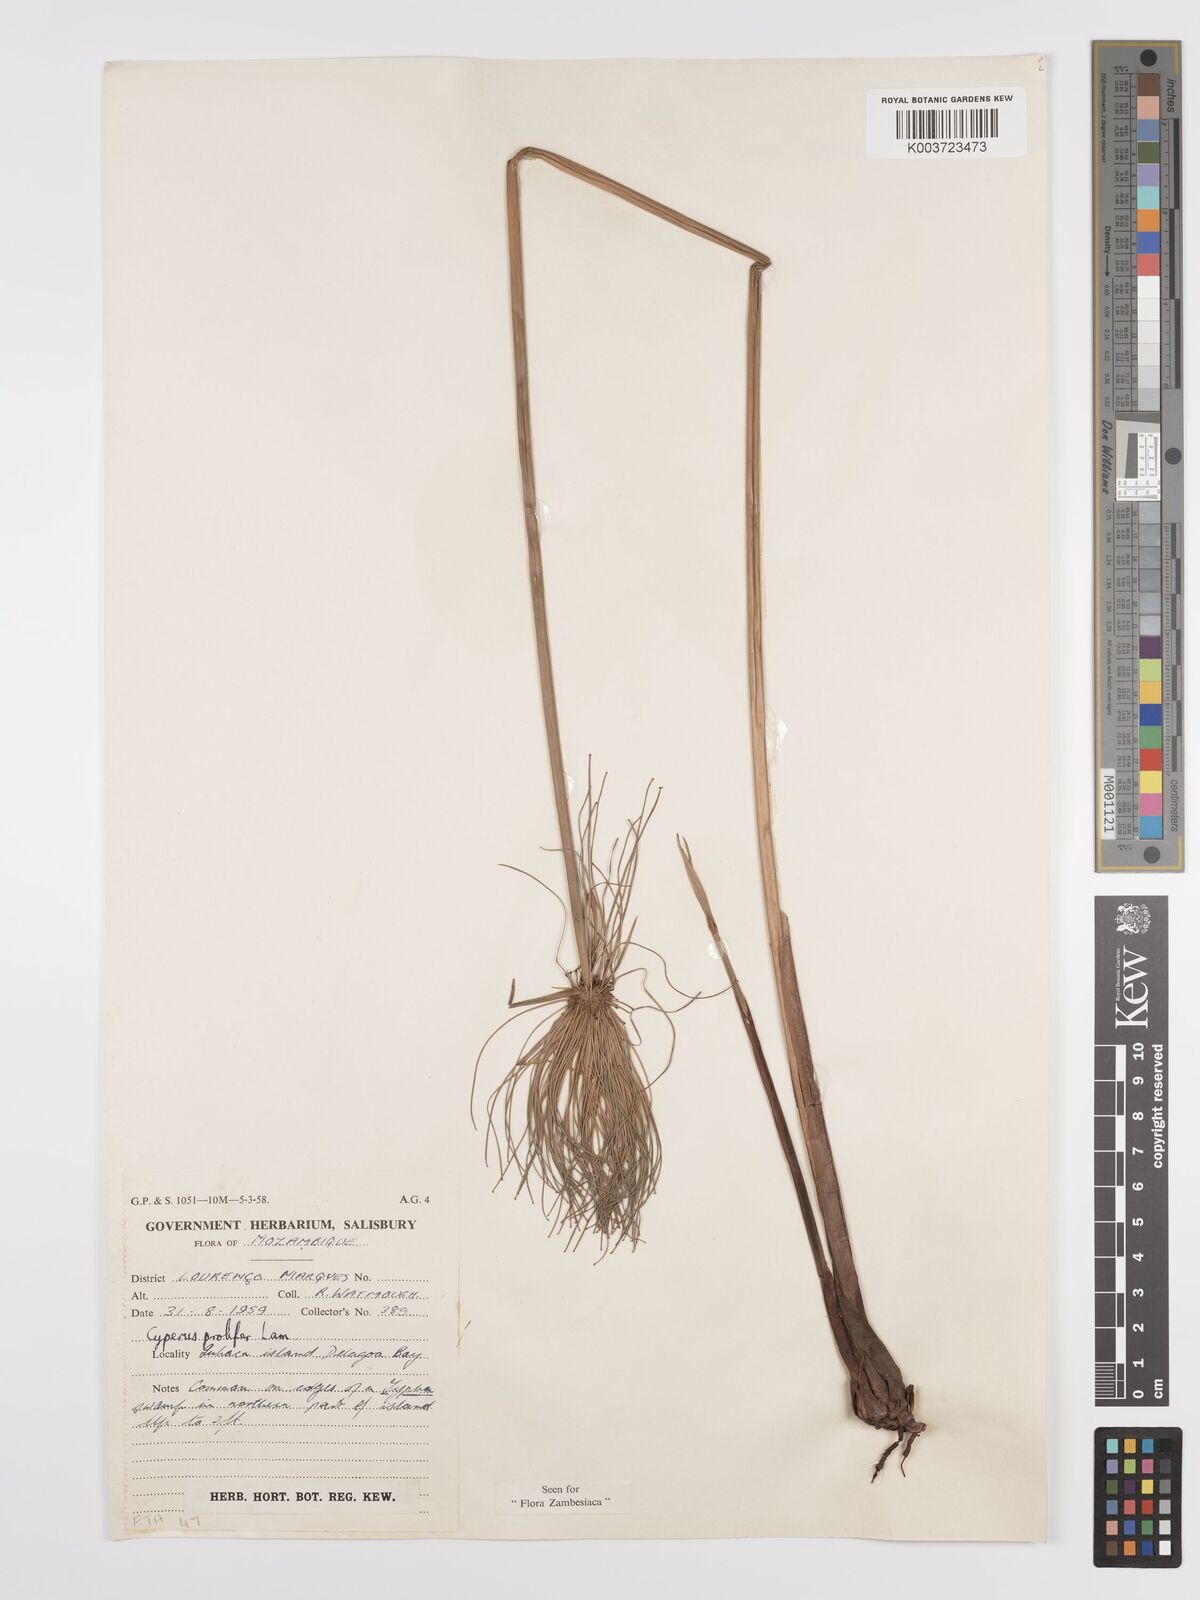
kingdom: Plantae
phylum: Tracheophyta
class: Liliopsida
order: Poales
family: Cyperaceae
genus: Cyperus
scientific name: Cyperus prolifer
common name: Miniature flatsedge
